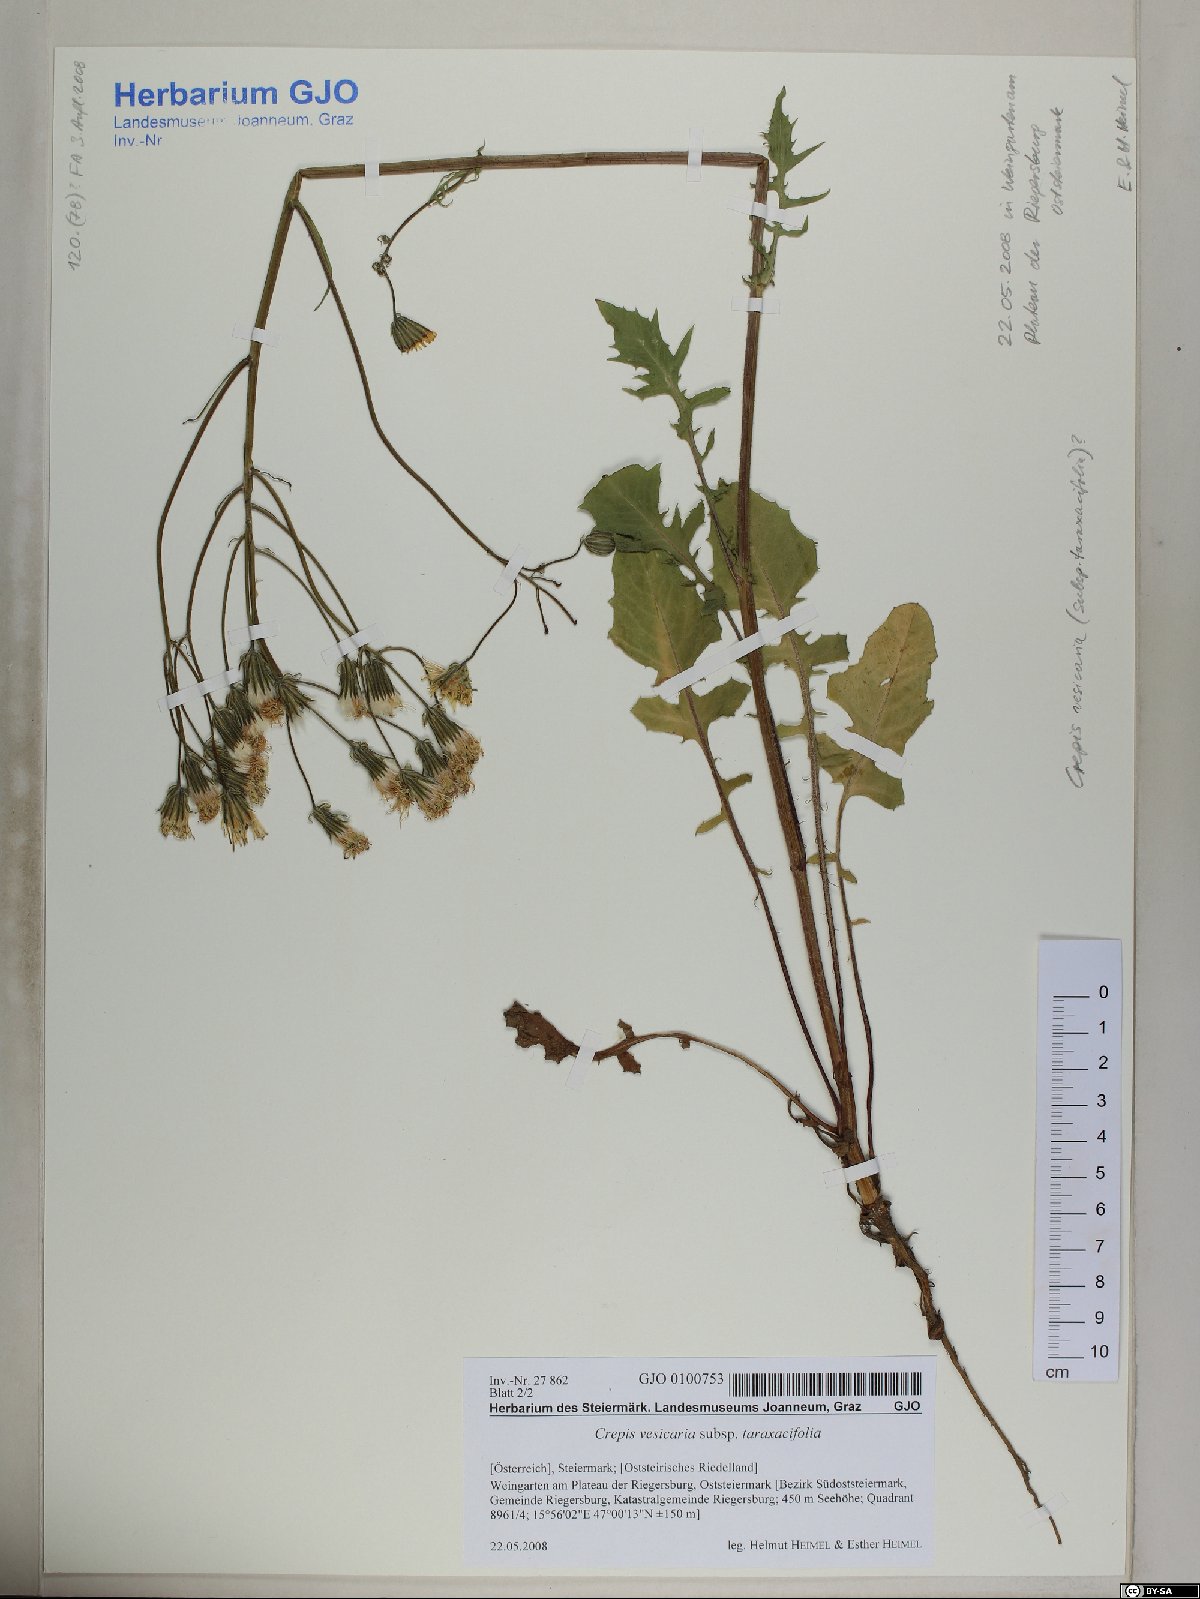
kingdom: Plantae
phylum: Tracheophyta
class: Magnoliopsida
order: Asterales
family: Asteraceae
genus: Crepis
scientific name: Crepis vesicaria
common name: Beaked hawksbeard
